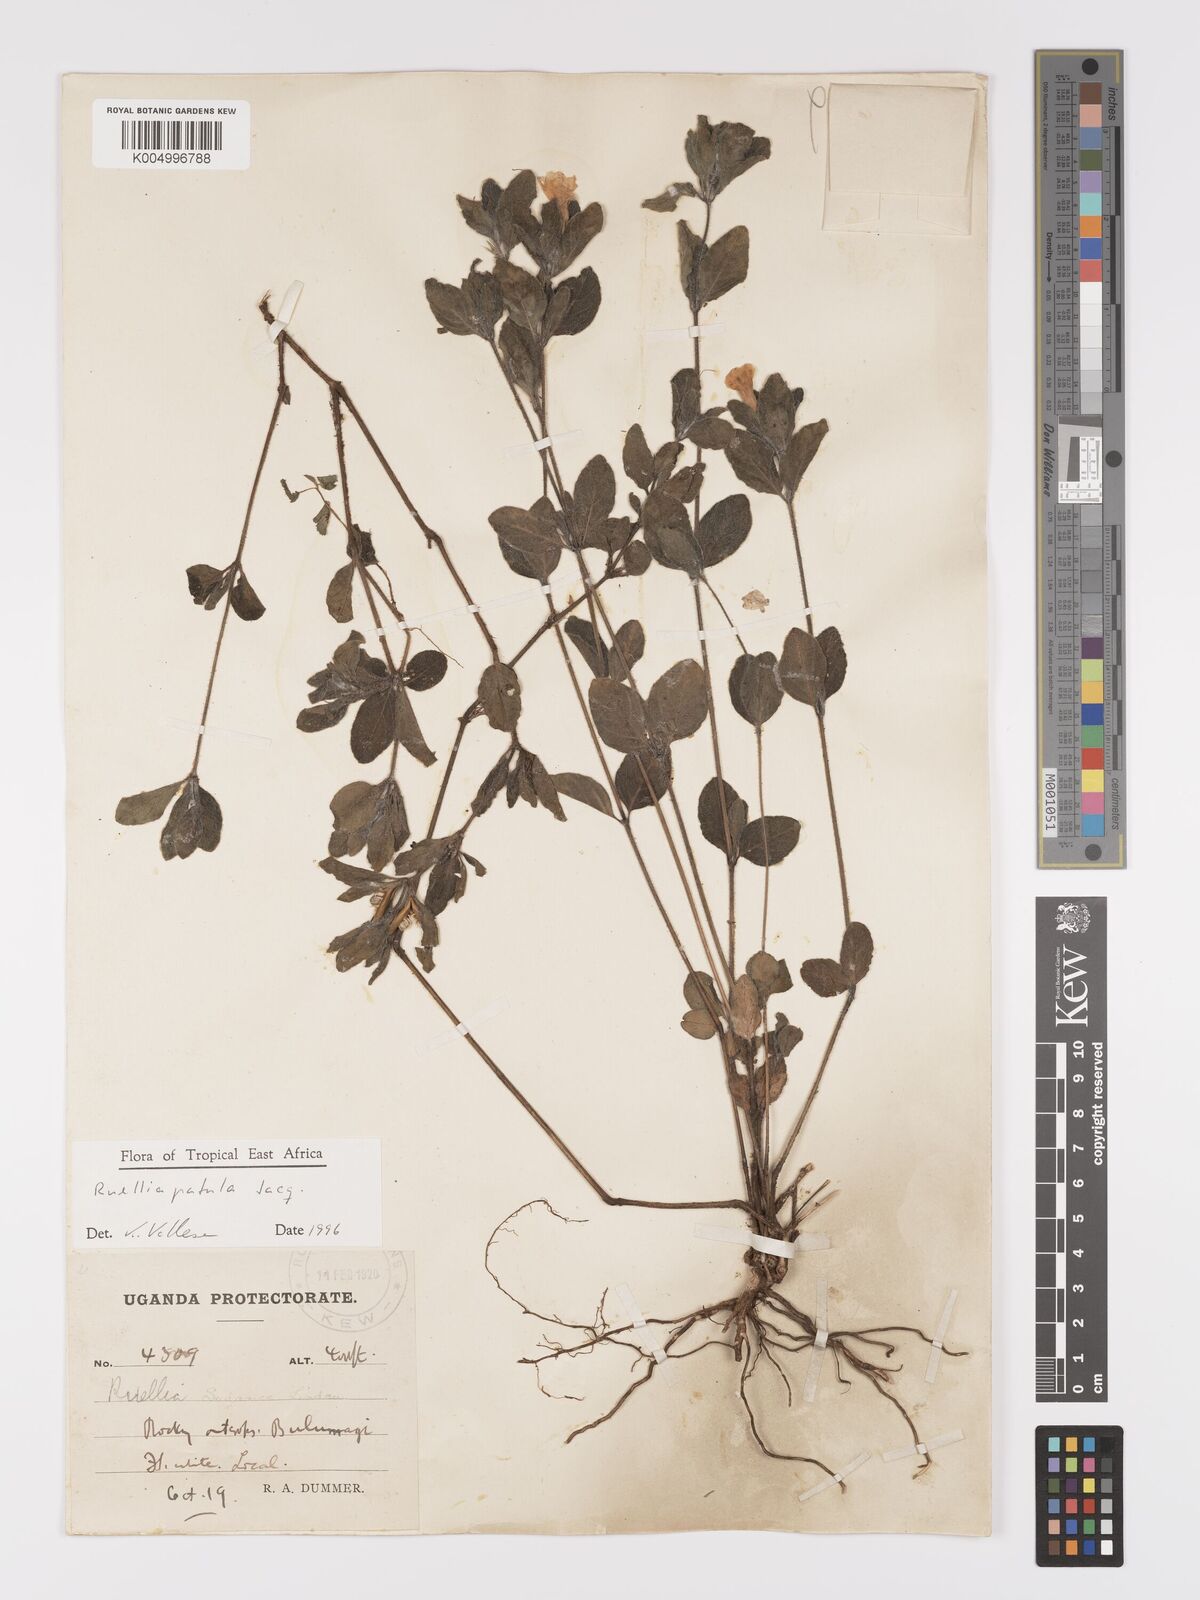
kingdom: Plantae
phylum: Tracheophyta
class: Magnoliopsida
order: Lamiales
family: Acanthaceae
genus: Ruellia
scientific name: Ruellia patula
